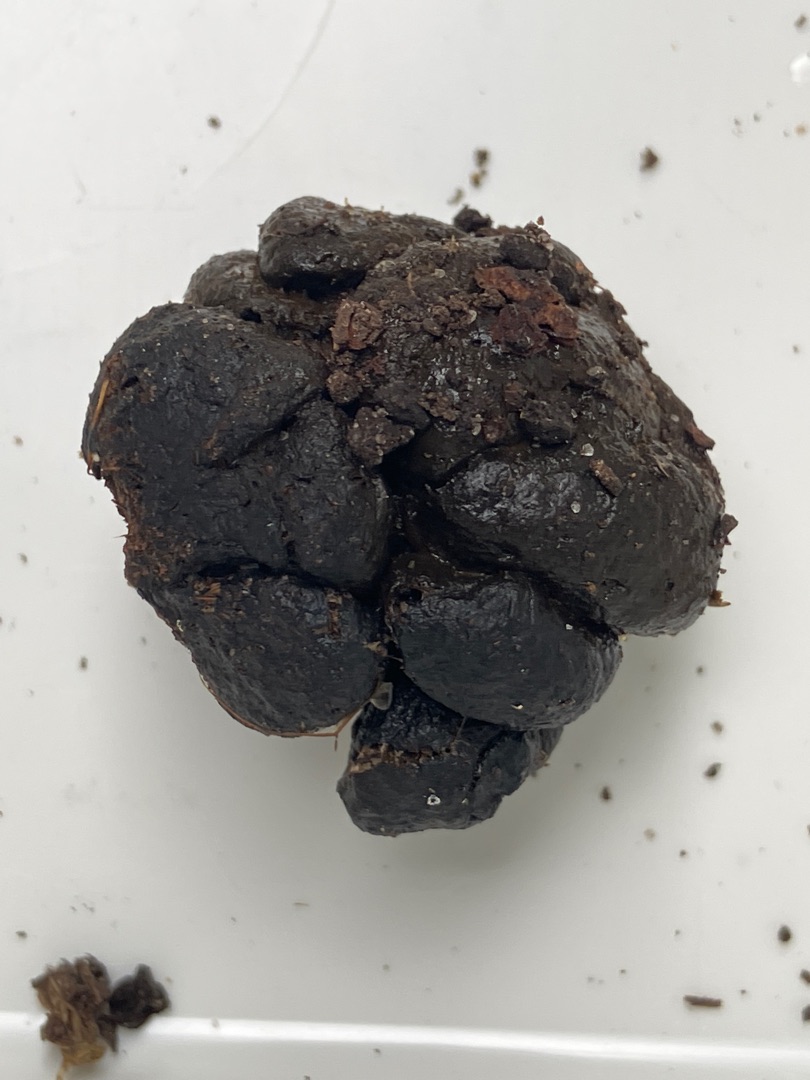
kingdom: Animalia
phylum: Chordata
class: Mammalia
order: Artiodactyla
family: Cervidae
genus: Capreolus
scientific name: Capreolus capreolus
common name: Rådyr
